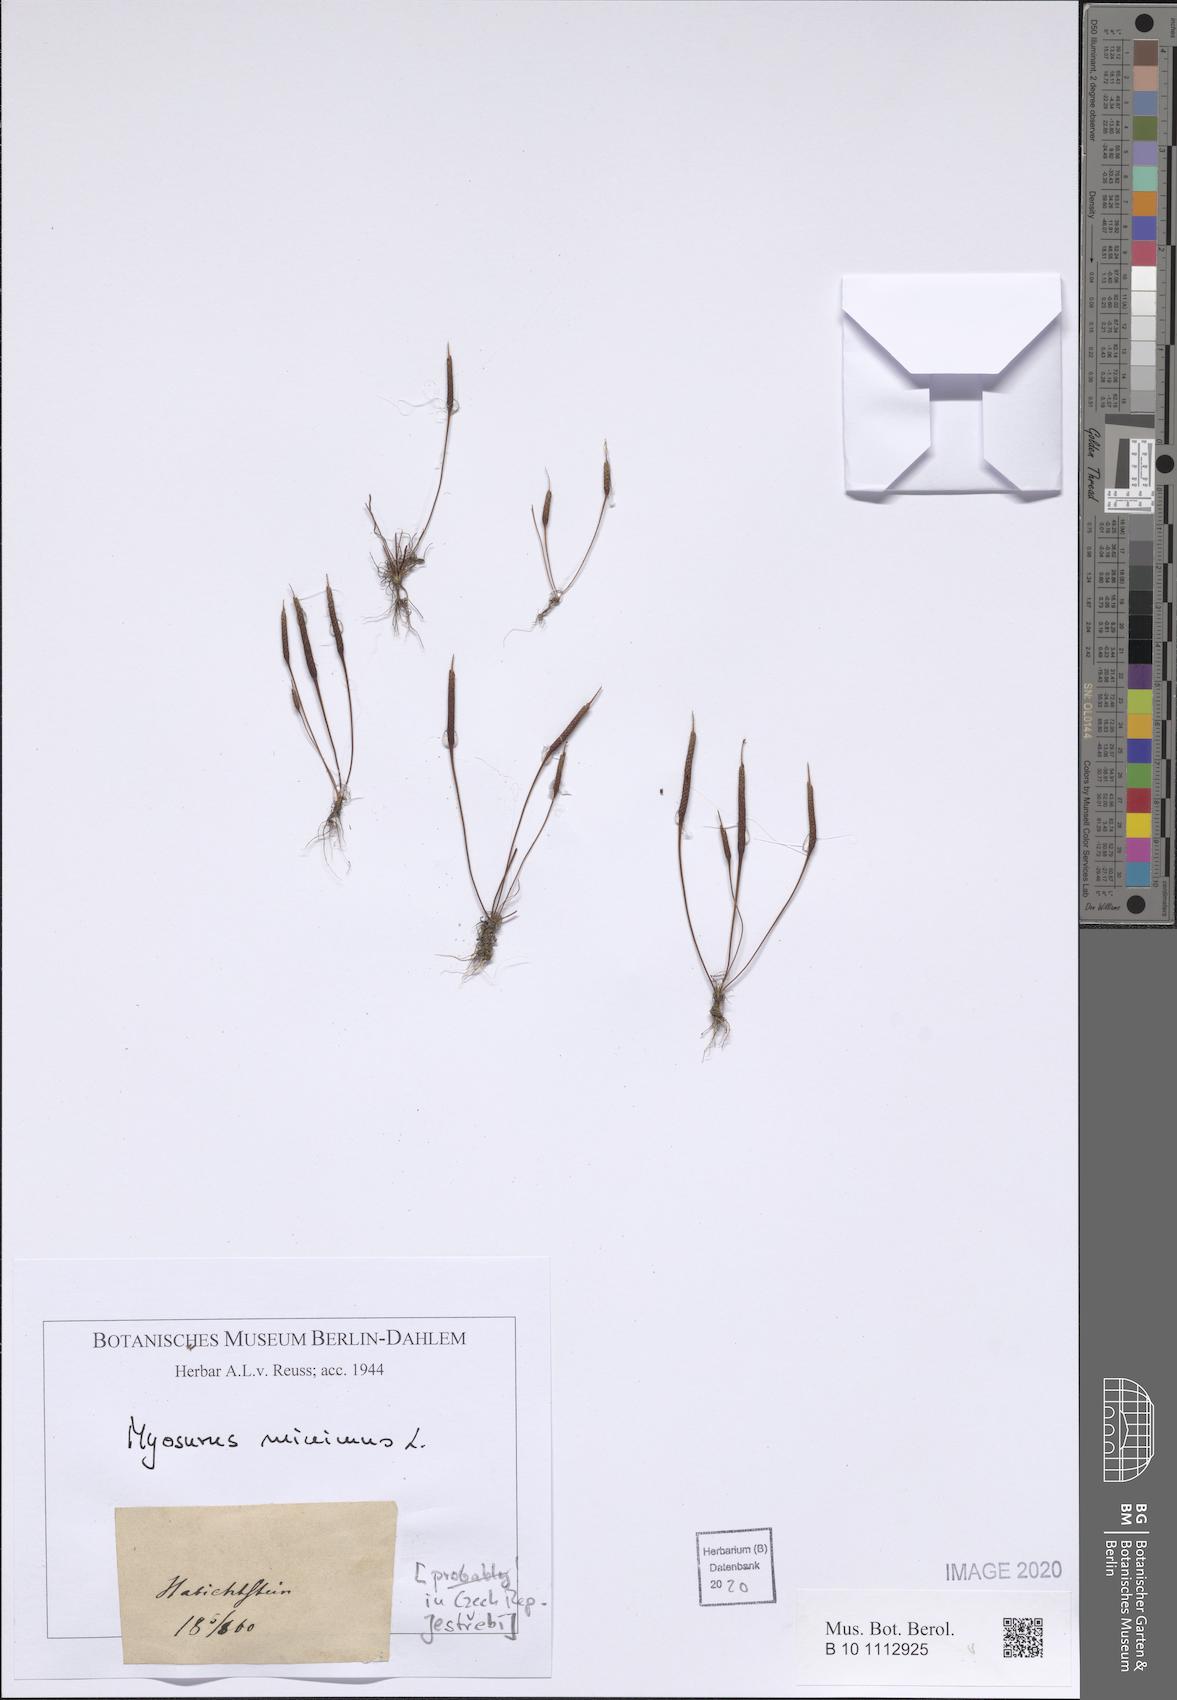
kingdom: Plantae
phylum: Tracheophyta
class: Magnoliopsida
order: Ranunculales
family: Ranunculaceae
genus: Myosurus
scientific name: Myosurus minimus
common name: Mousetail
